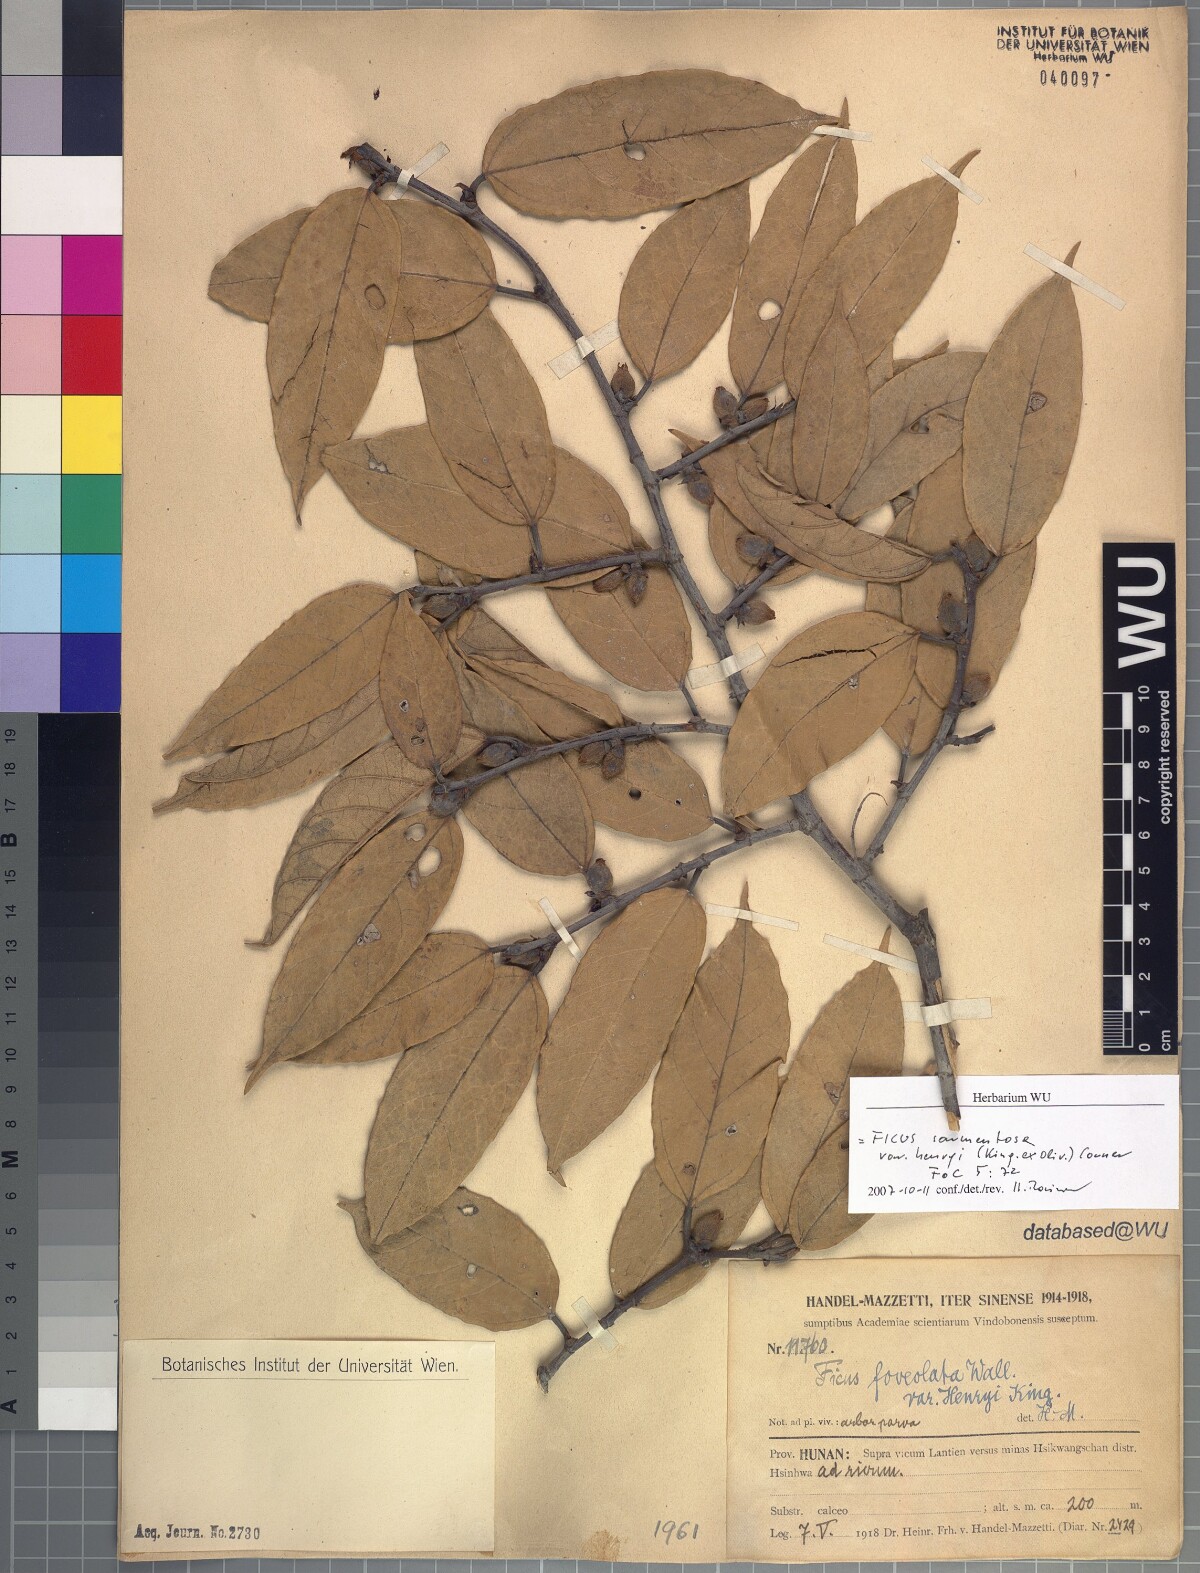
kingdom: Plantae
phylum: Tracheophyta
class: Magnoliopsida
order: Rosales
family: Moraceae
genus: Ficus
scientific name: Ficus sarmentosa
